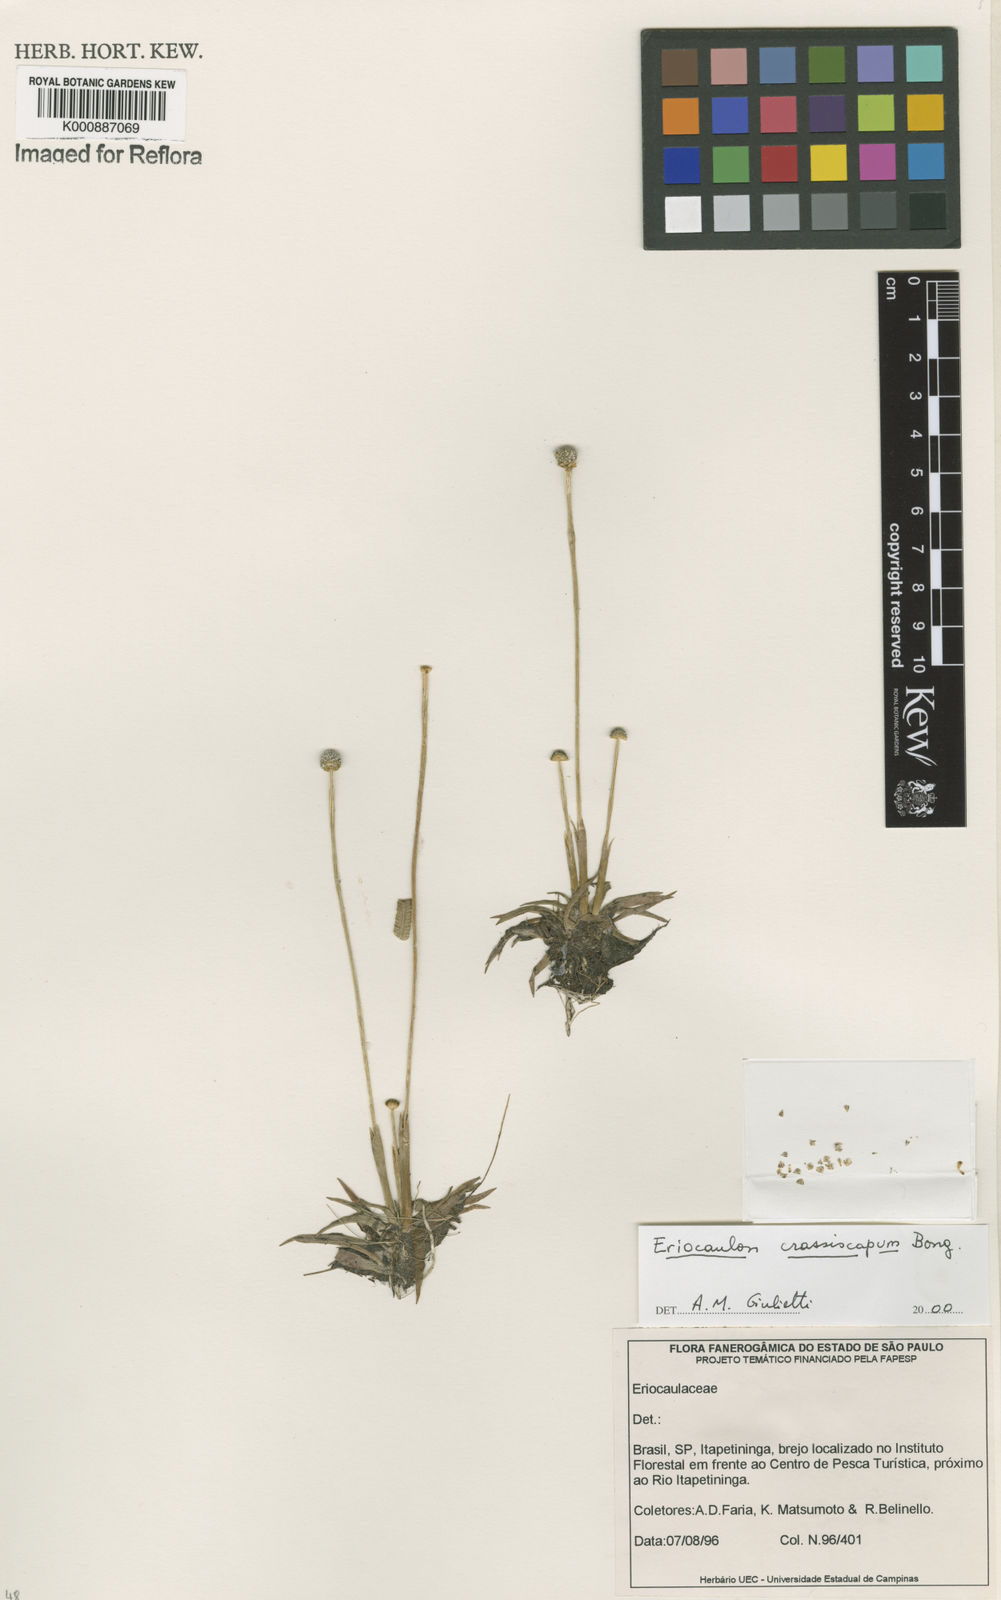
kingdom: Plantae
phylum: Tracheophyta
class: Liliopsida
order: Poales
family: Eriocaulaceae
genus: Eriocaulon
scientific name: Eriocaulon crassiscapum
